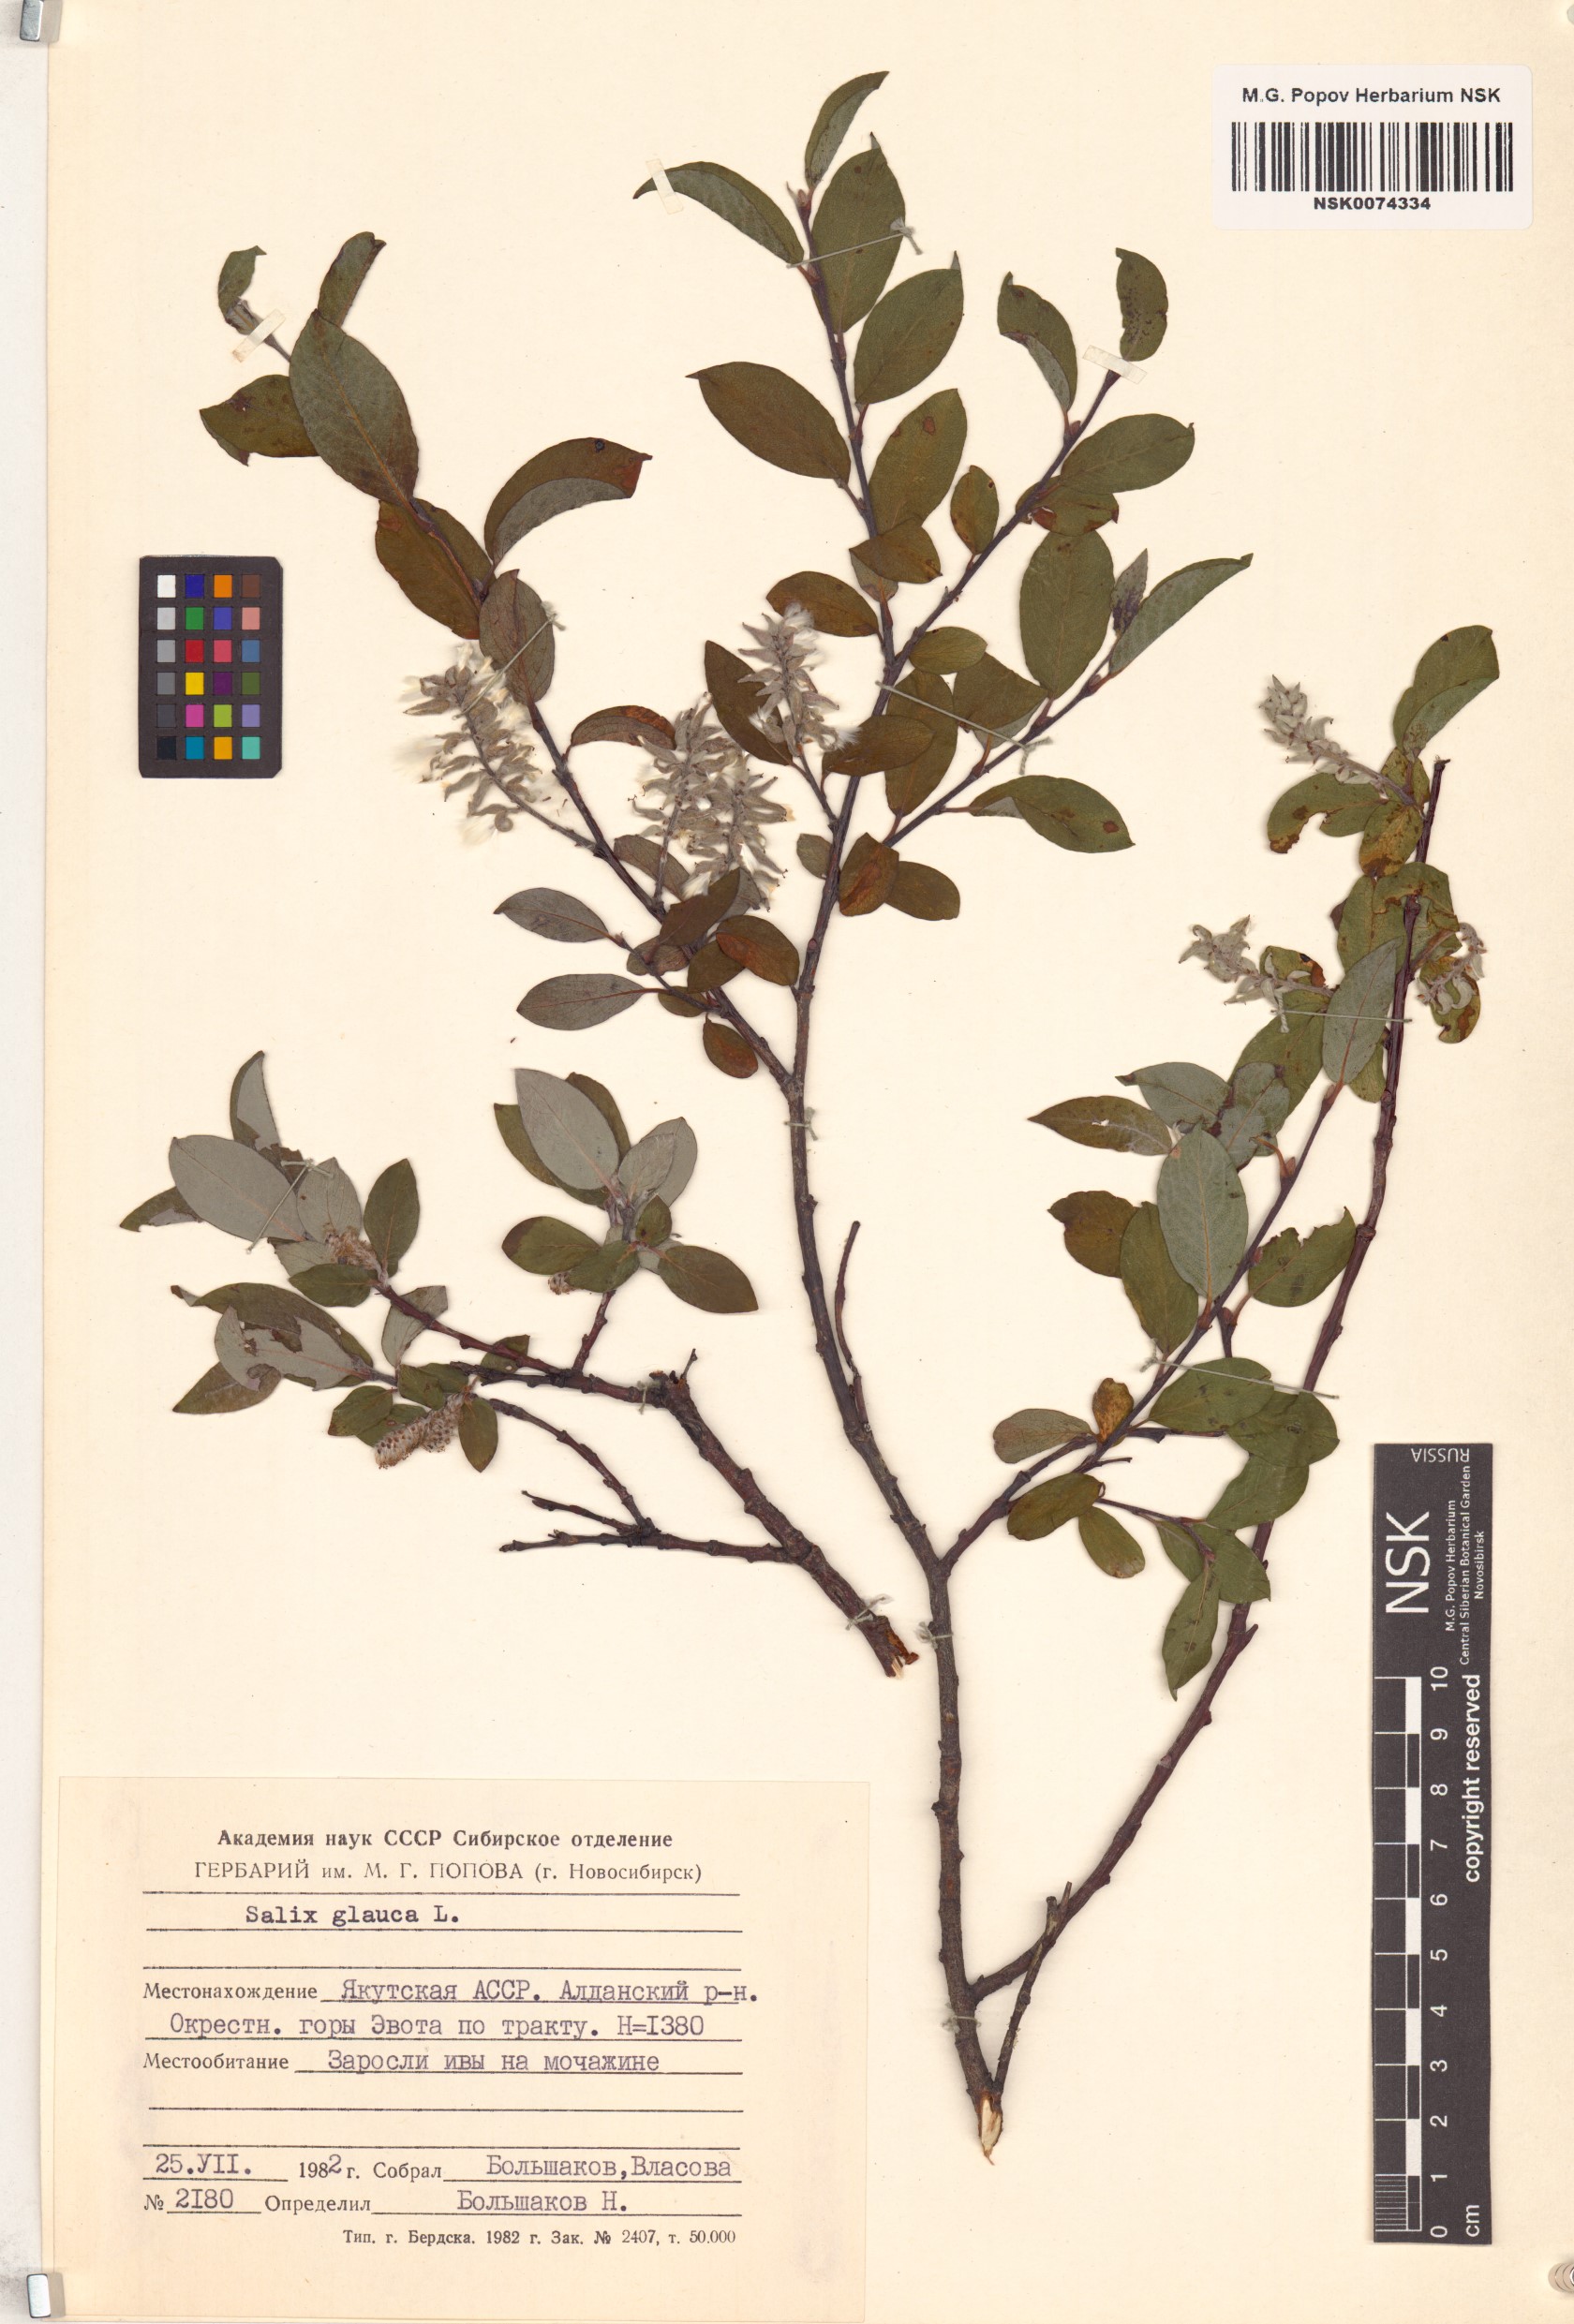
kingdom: Plantae
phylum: Tracheophyta
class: Magnoliopsida
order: Malpighiales
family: Salicaceae
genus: Salix
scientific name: Salix glauca
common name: Glaucous willow
